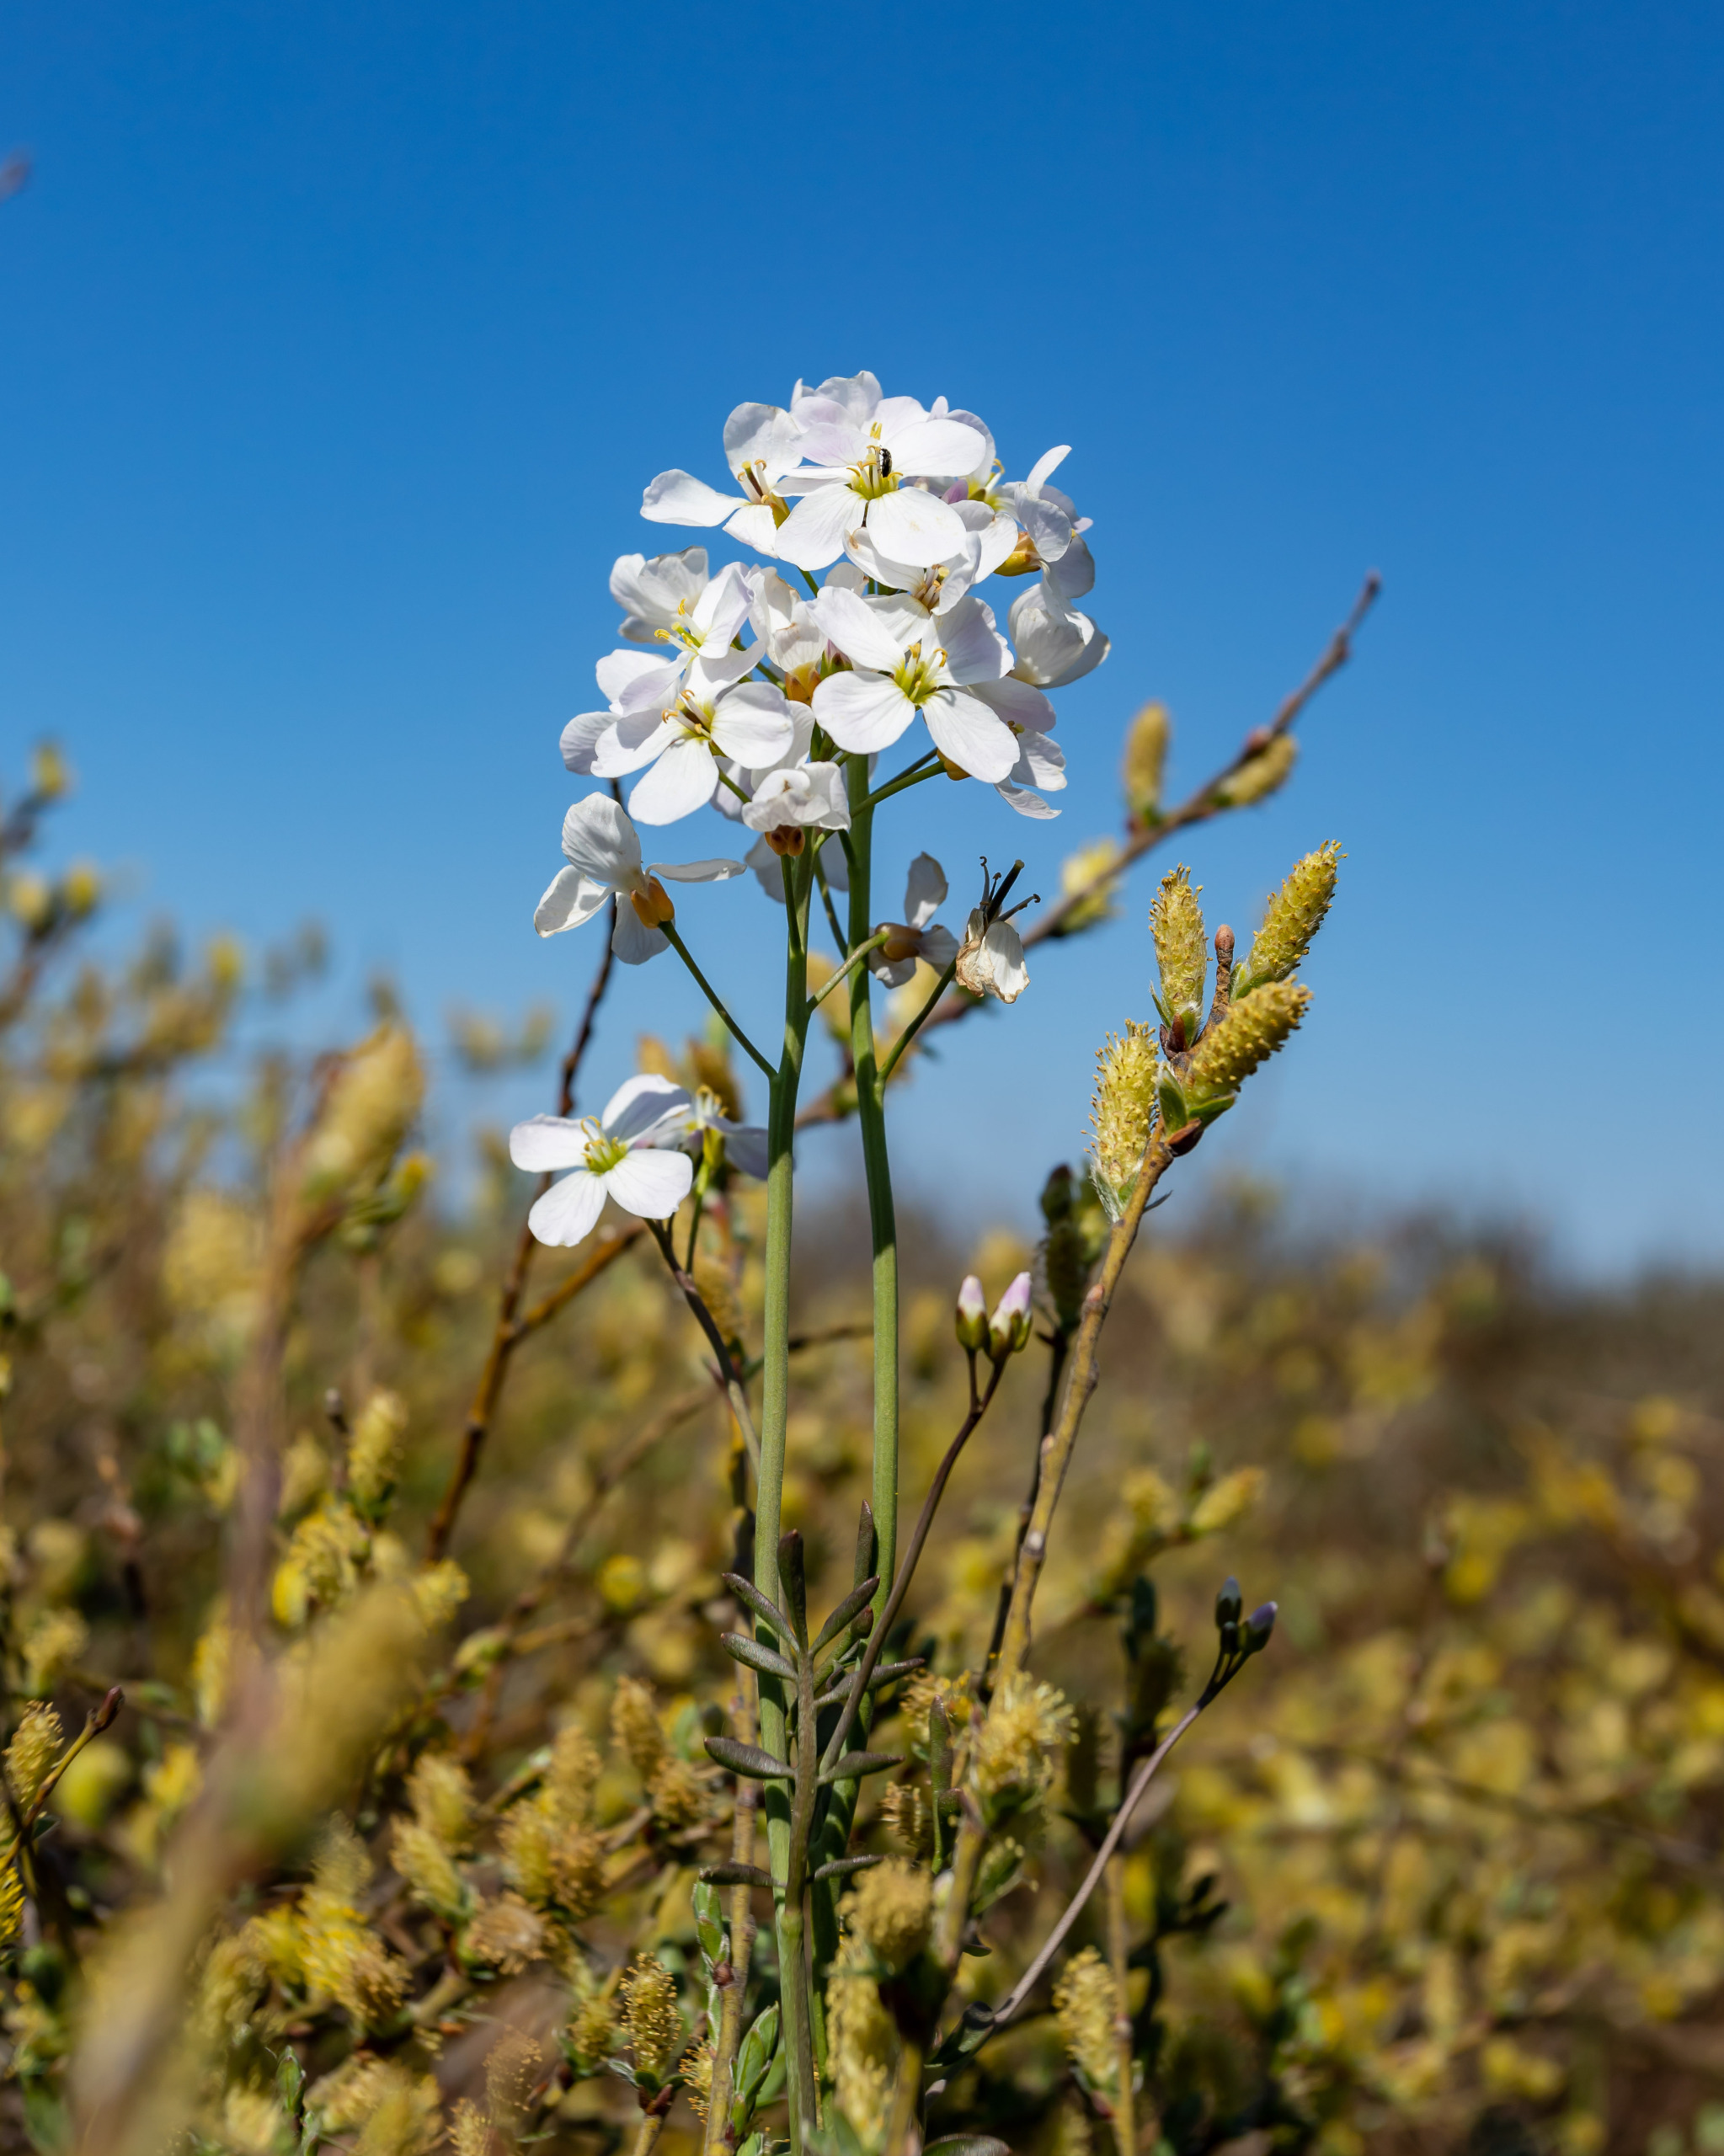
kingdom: Plantae
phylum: Tracheophyta
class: Magnoliopsida
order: Brassicales
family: Brassicaceae
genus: Cardamine
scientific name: Cardamine pratensis
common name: Engkarse
